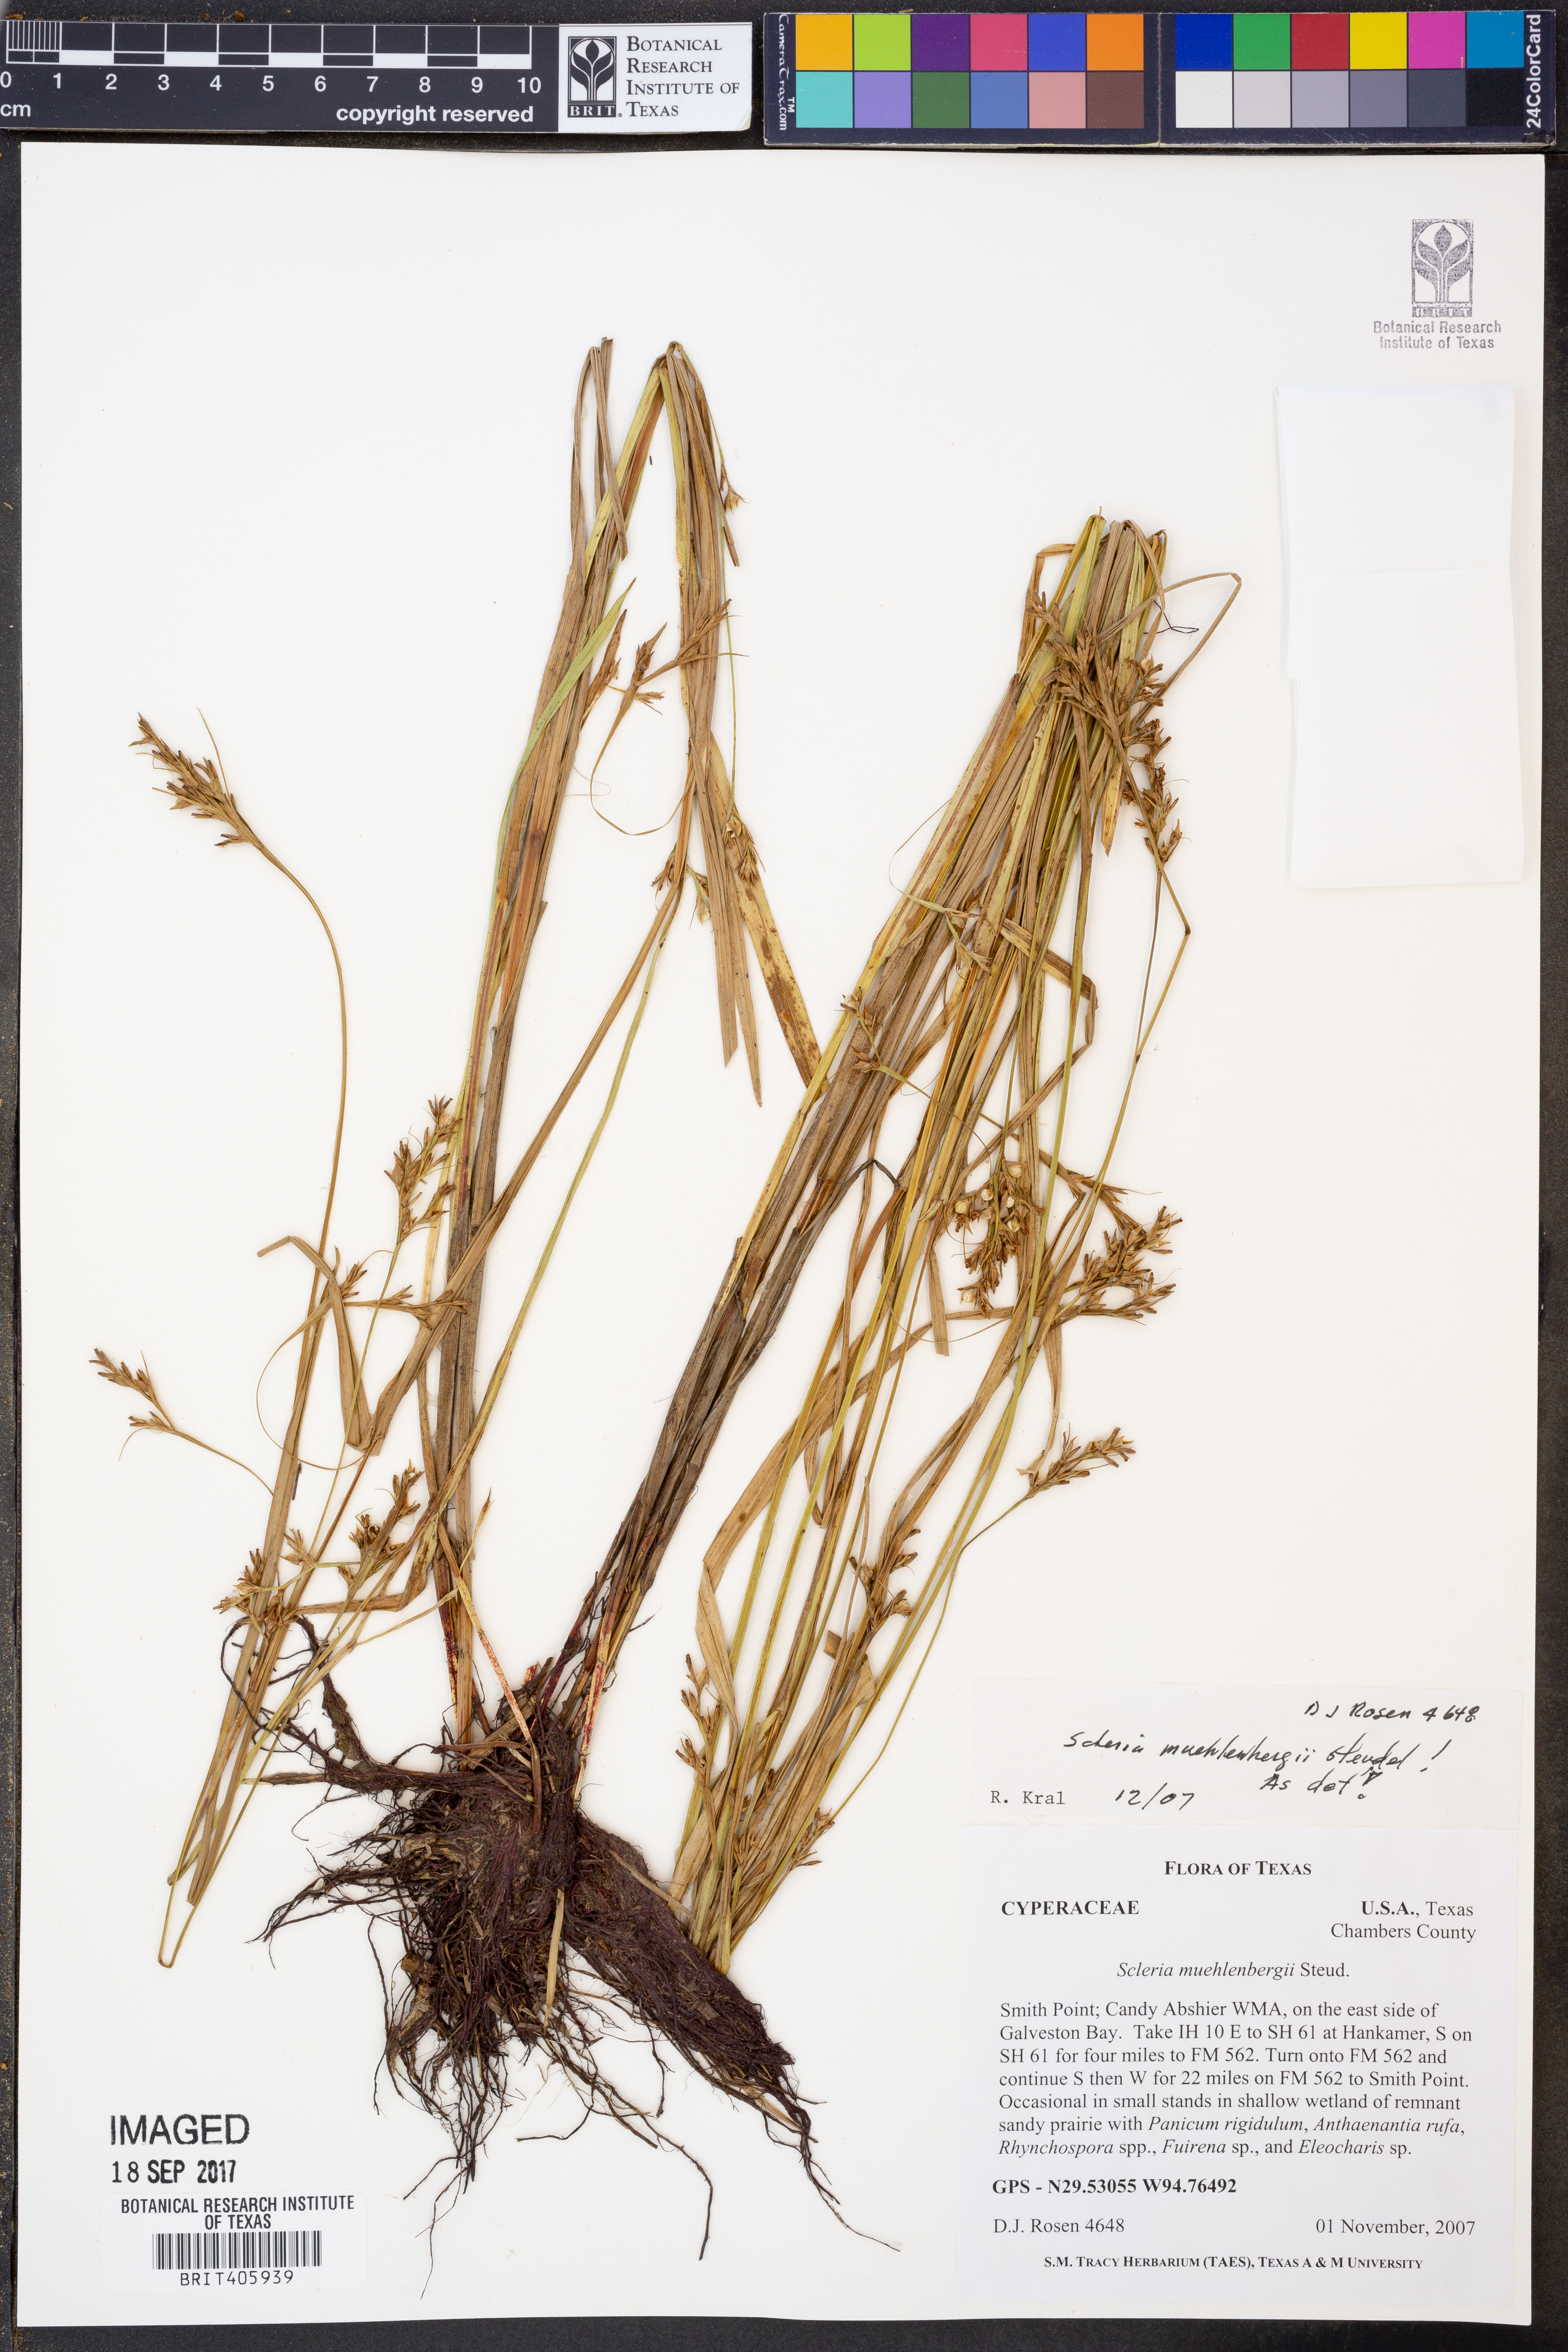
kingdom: Plantae
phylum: Tracheophyta
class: Liliopsida
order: Poales
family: Cyperaceae
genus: Scleria
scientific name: Scleria muehlenbergii
